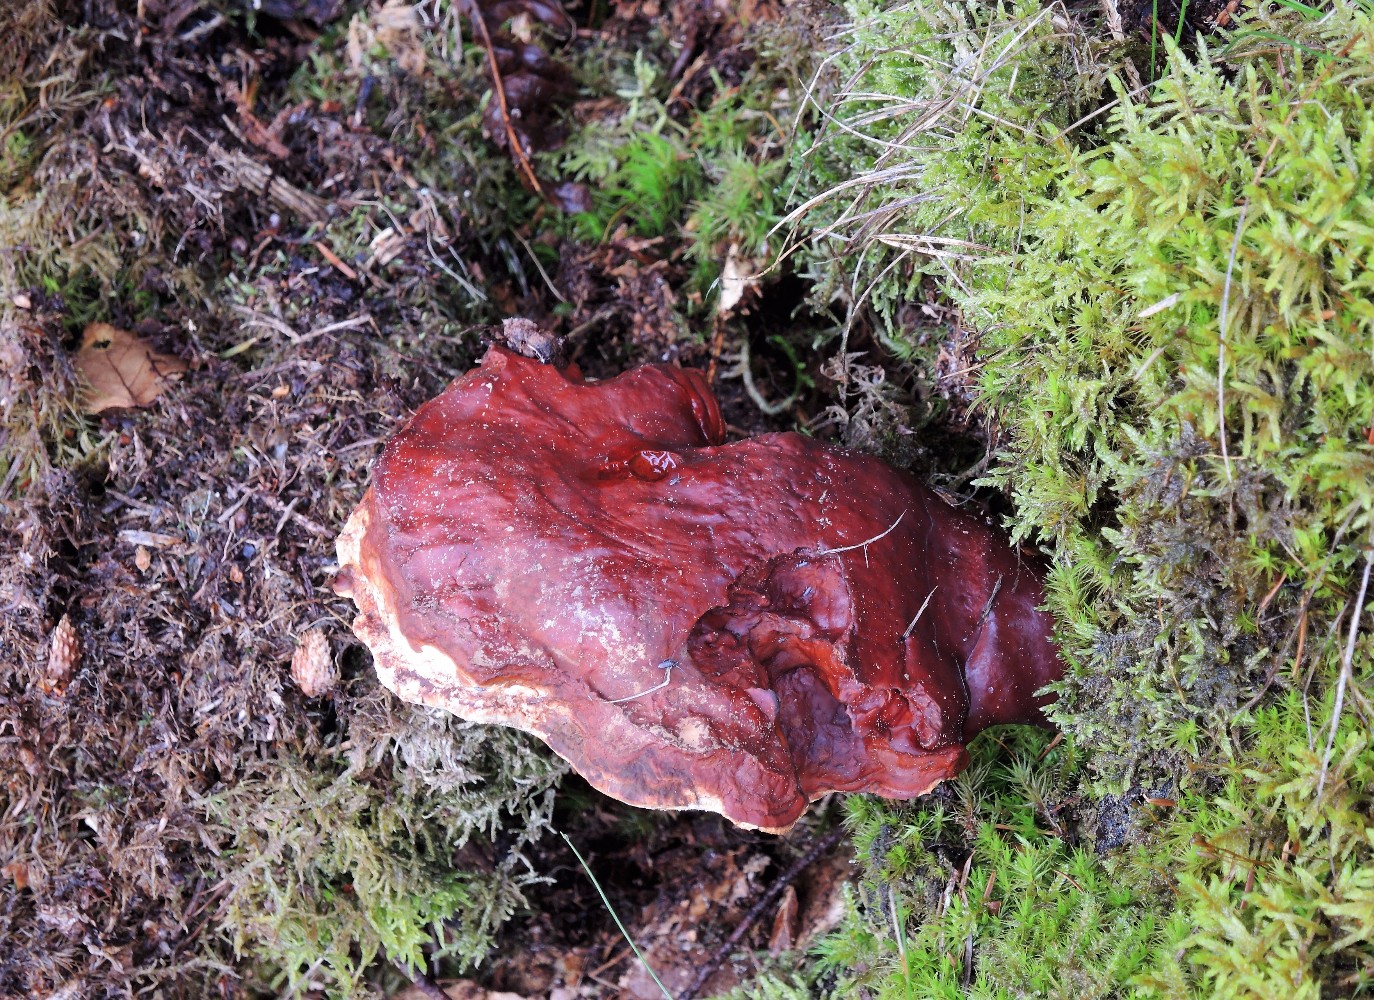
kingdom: Fungi
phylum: Basidiomycota
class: Agaricomycetes
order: Polyporales
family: Polyporaceae
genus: Ganoderma
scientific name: Ganoderma lucidum
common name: skinnende lakporesvamp
